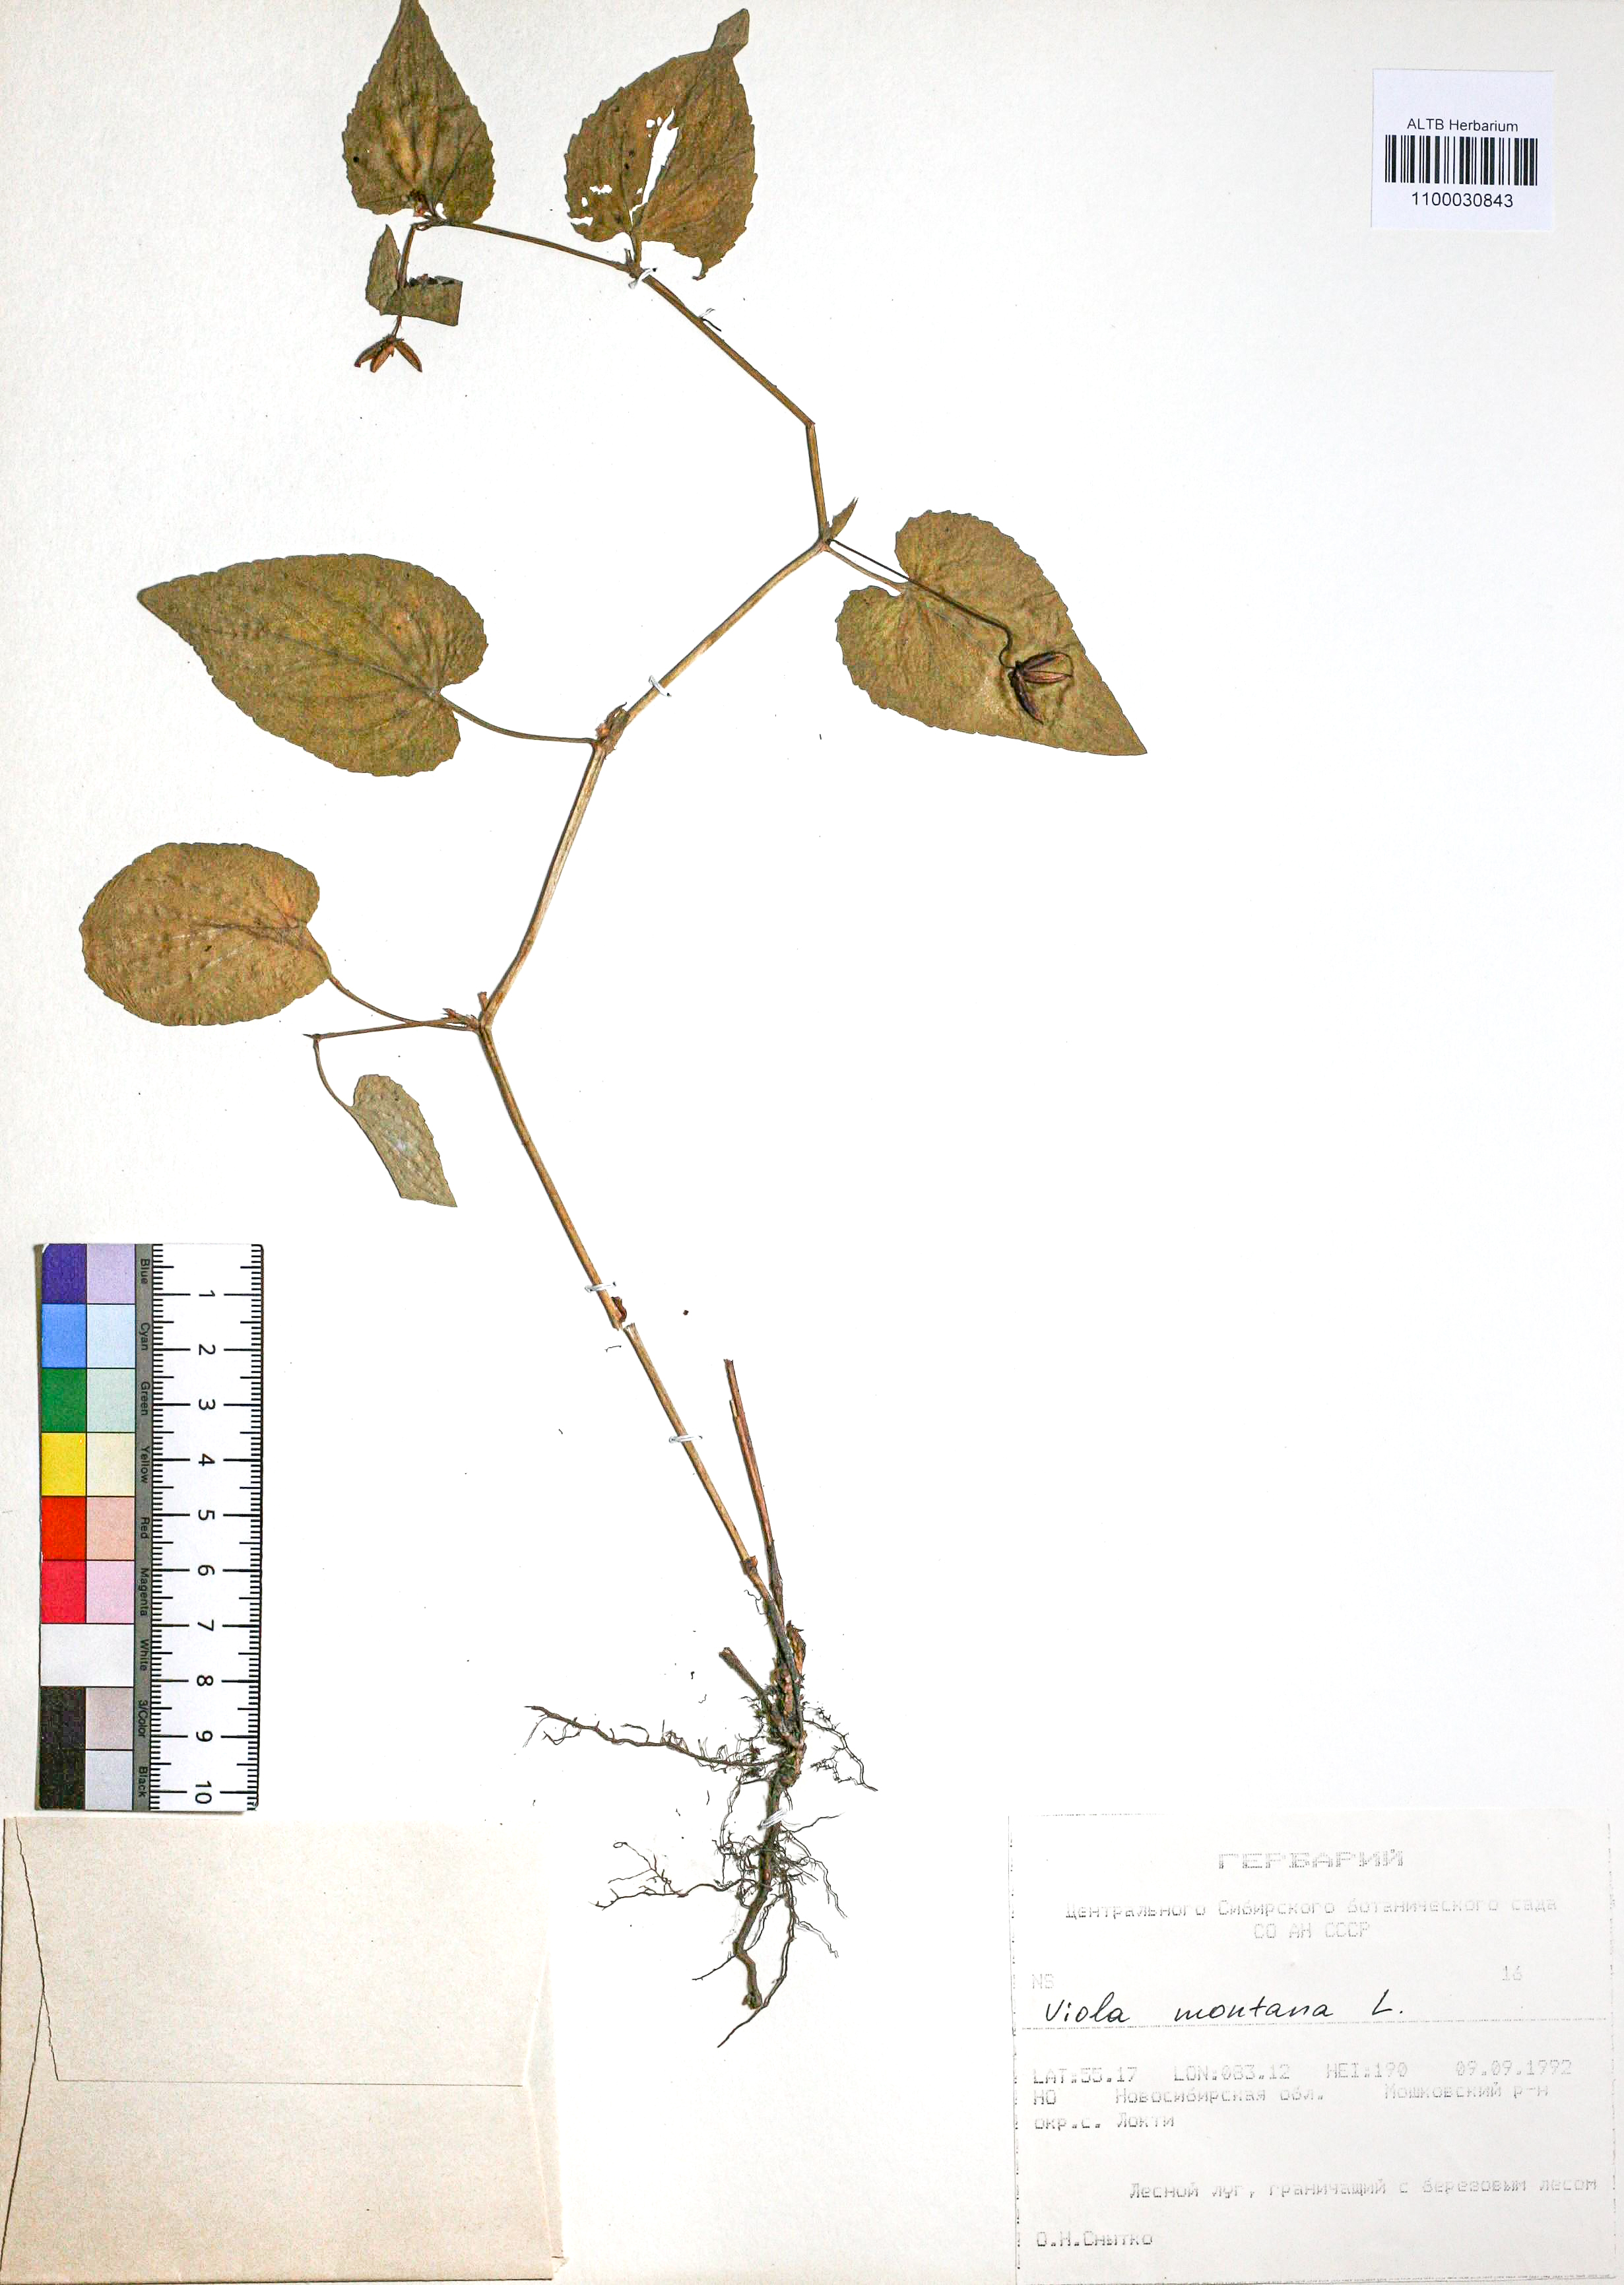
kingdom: Plantae
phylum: Tracheophyta
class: Magnoliopsida
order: Malpighiales
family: Violaceae
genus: Viola
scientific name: Viola ruppii
